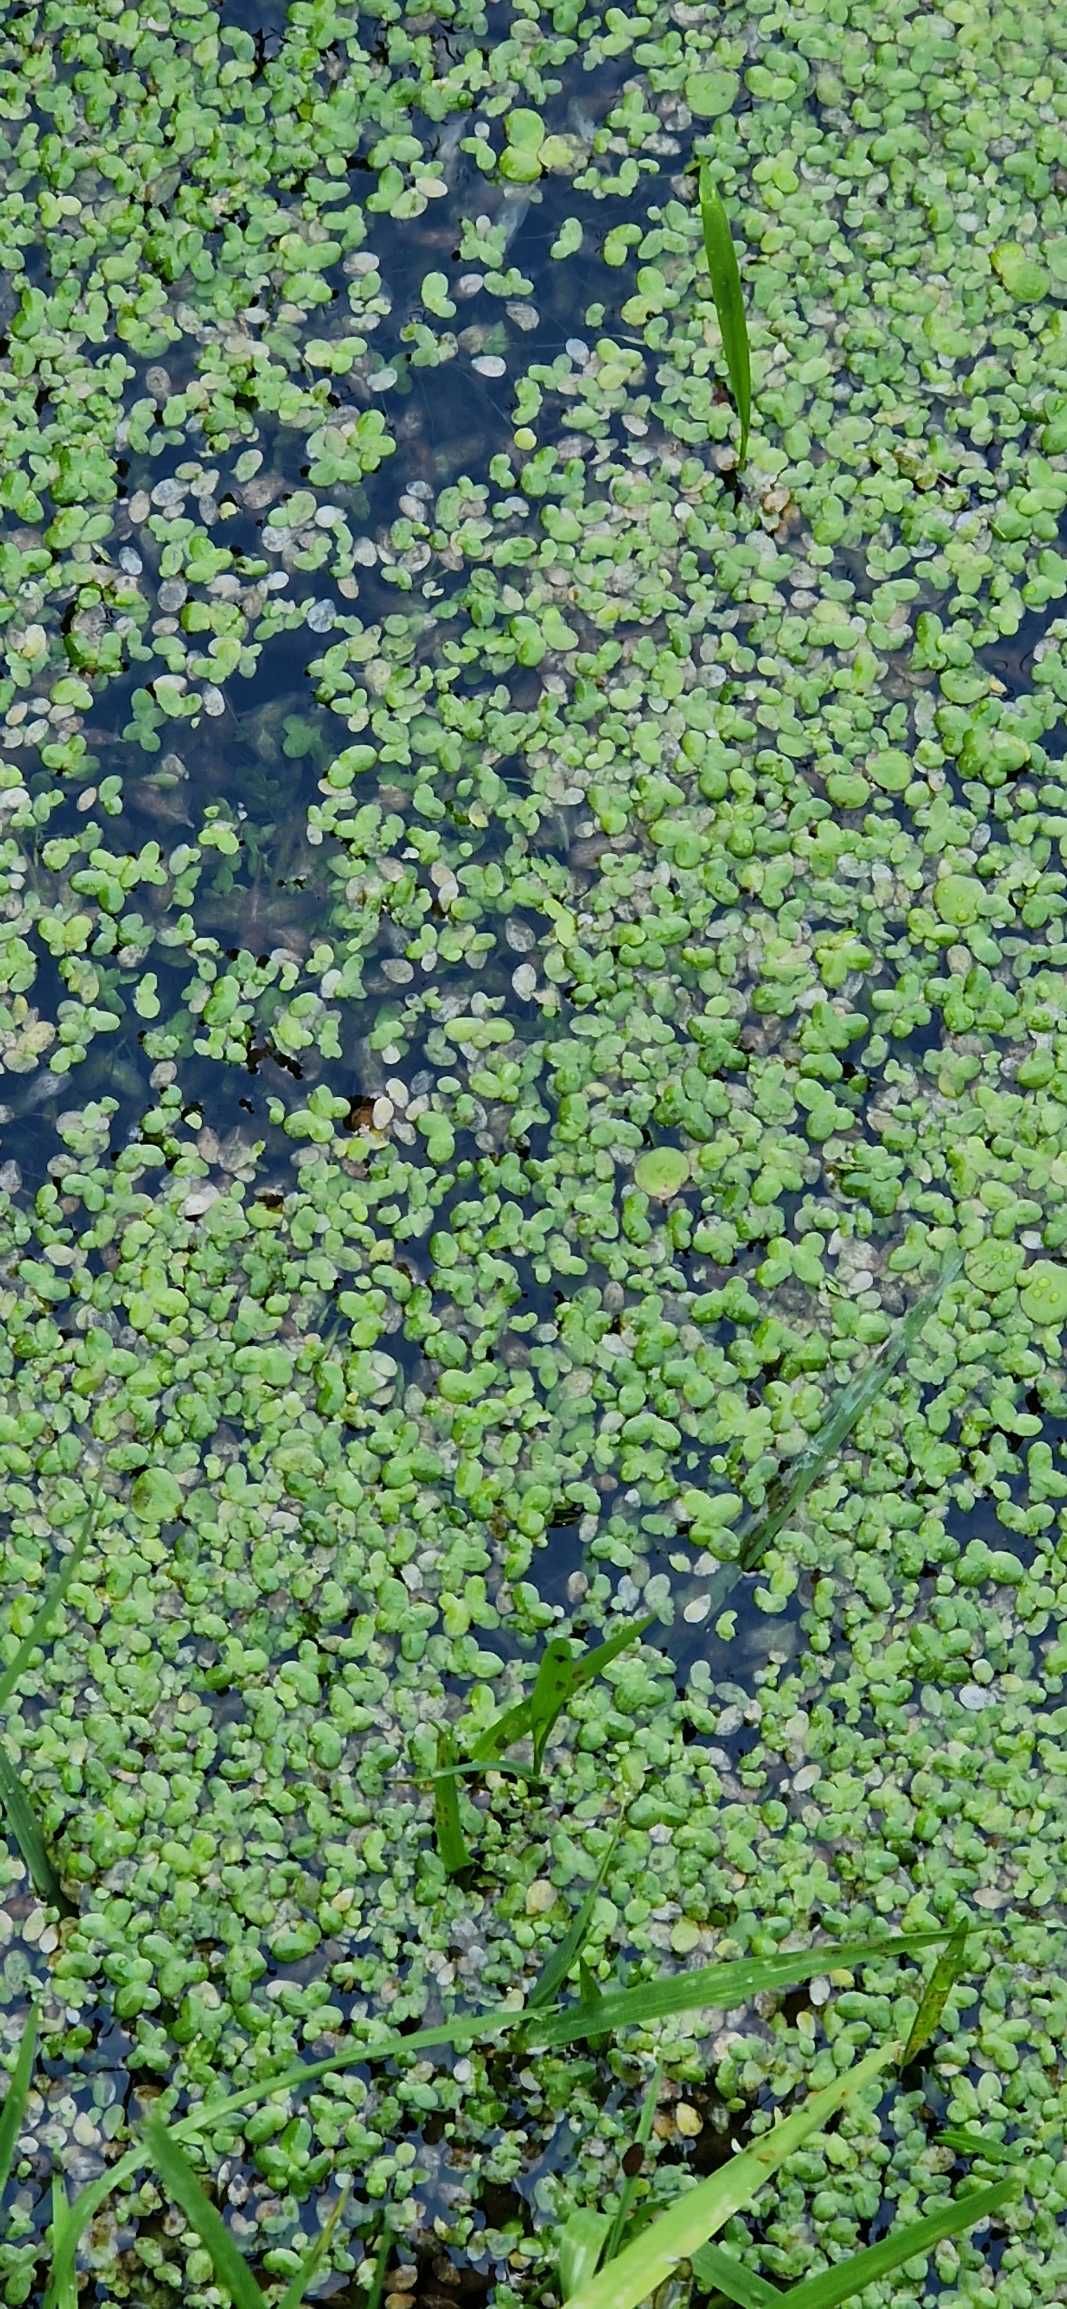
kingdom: Plantae
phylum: Tracheophyta
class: Liliopsida
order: Alismatales
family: Araceae
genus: Lemna
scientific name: Lemna minor
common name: Liden andemad
